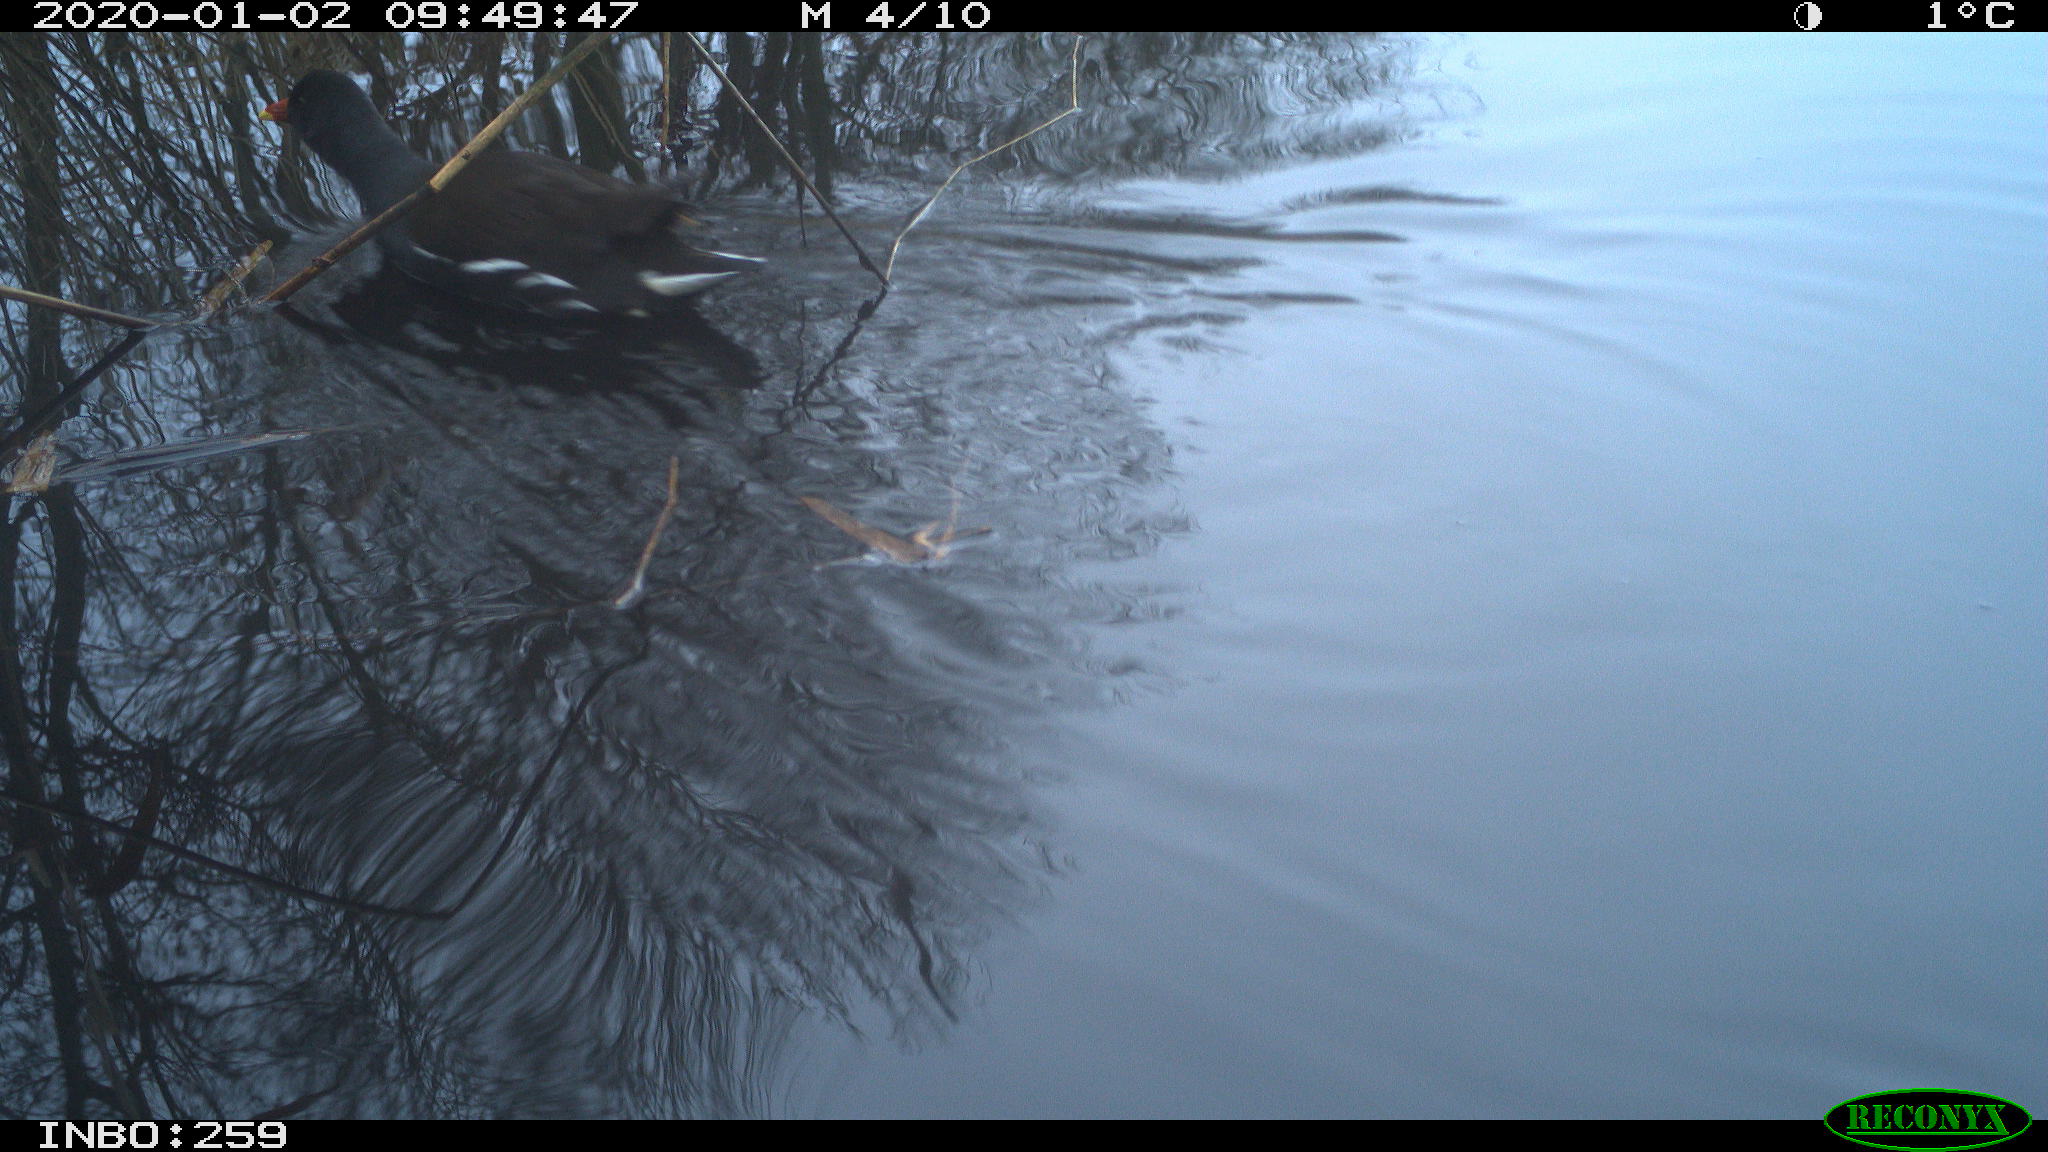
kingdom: Animalia
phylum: Chordata
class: Aves
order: Gruiformes
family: Rallidae
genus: Gallinula
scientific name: Gallinula chloropus
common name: Common moorhen
